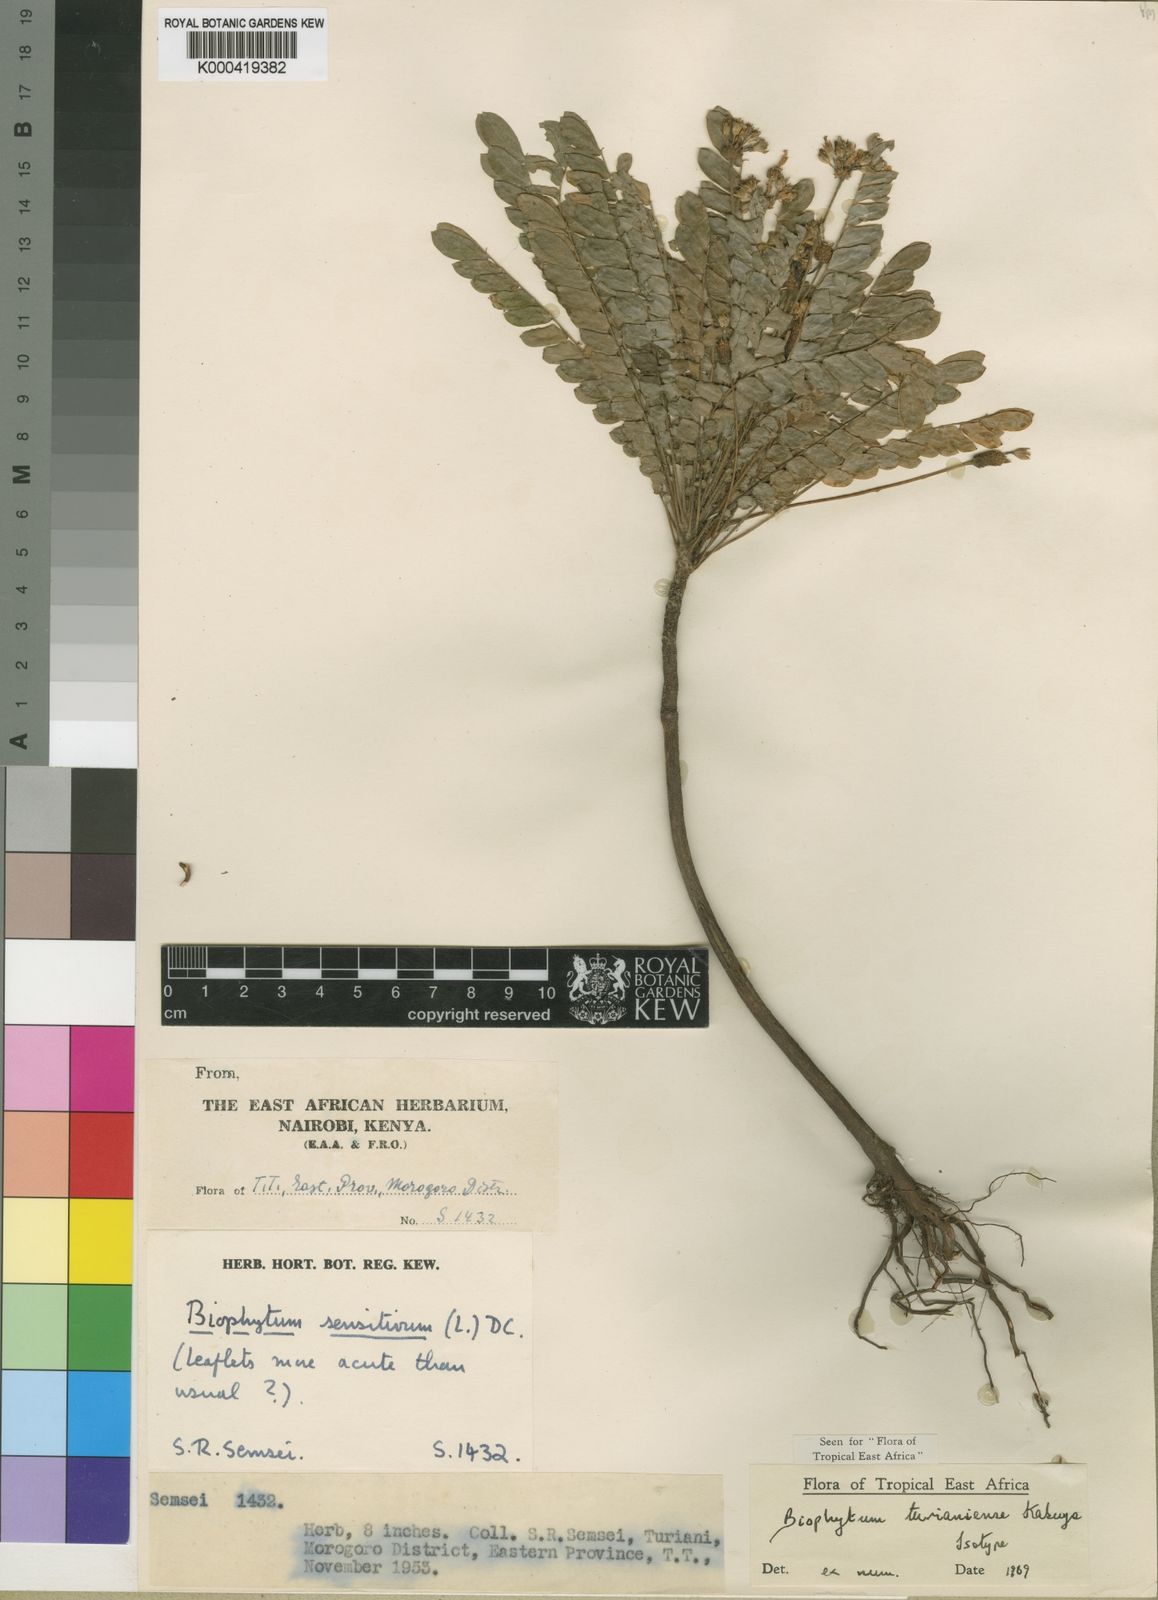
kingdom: Plantae
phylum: Tracheophyta
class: Magnoliopsida
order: Oxalidales
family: Oxalidaceae
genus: Biophytum
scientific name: Biophytum turianiense
